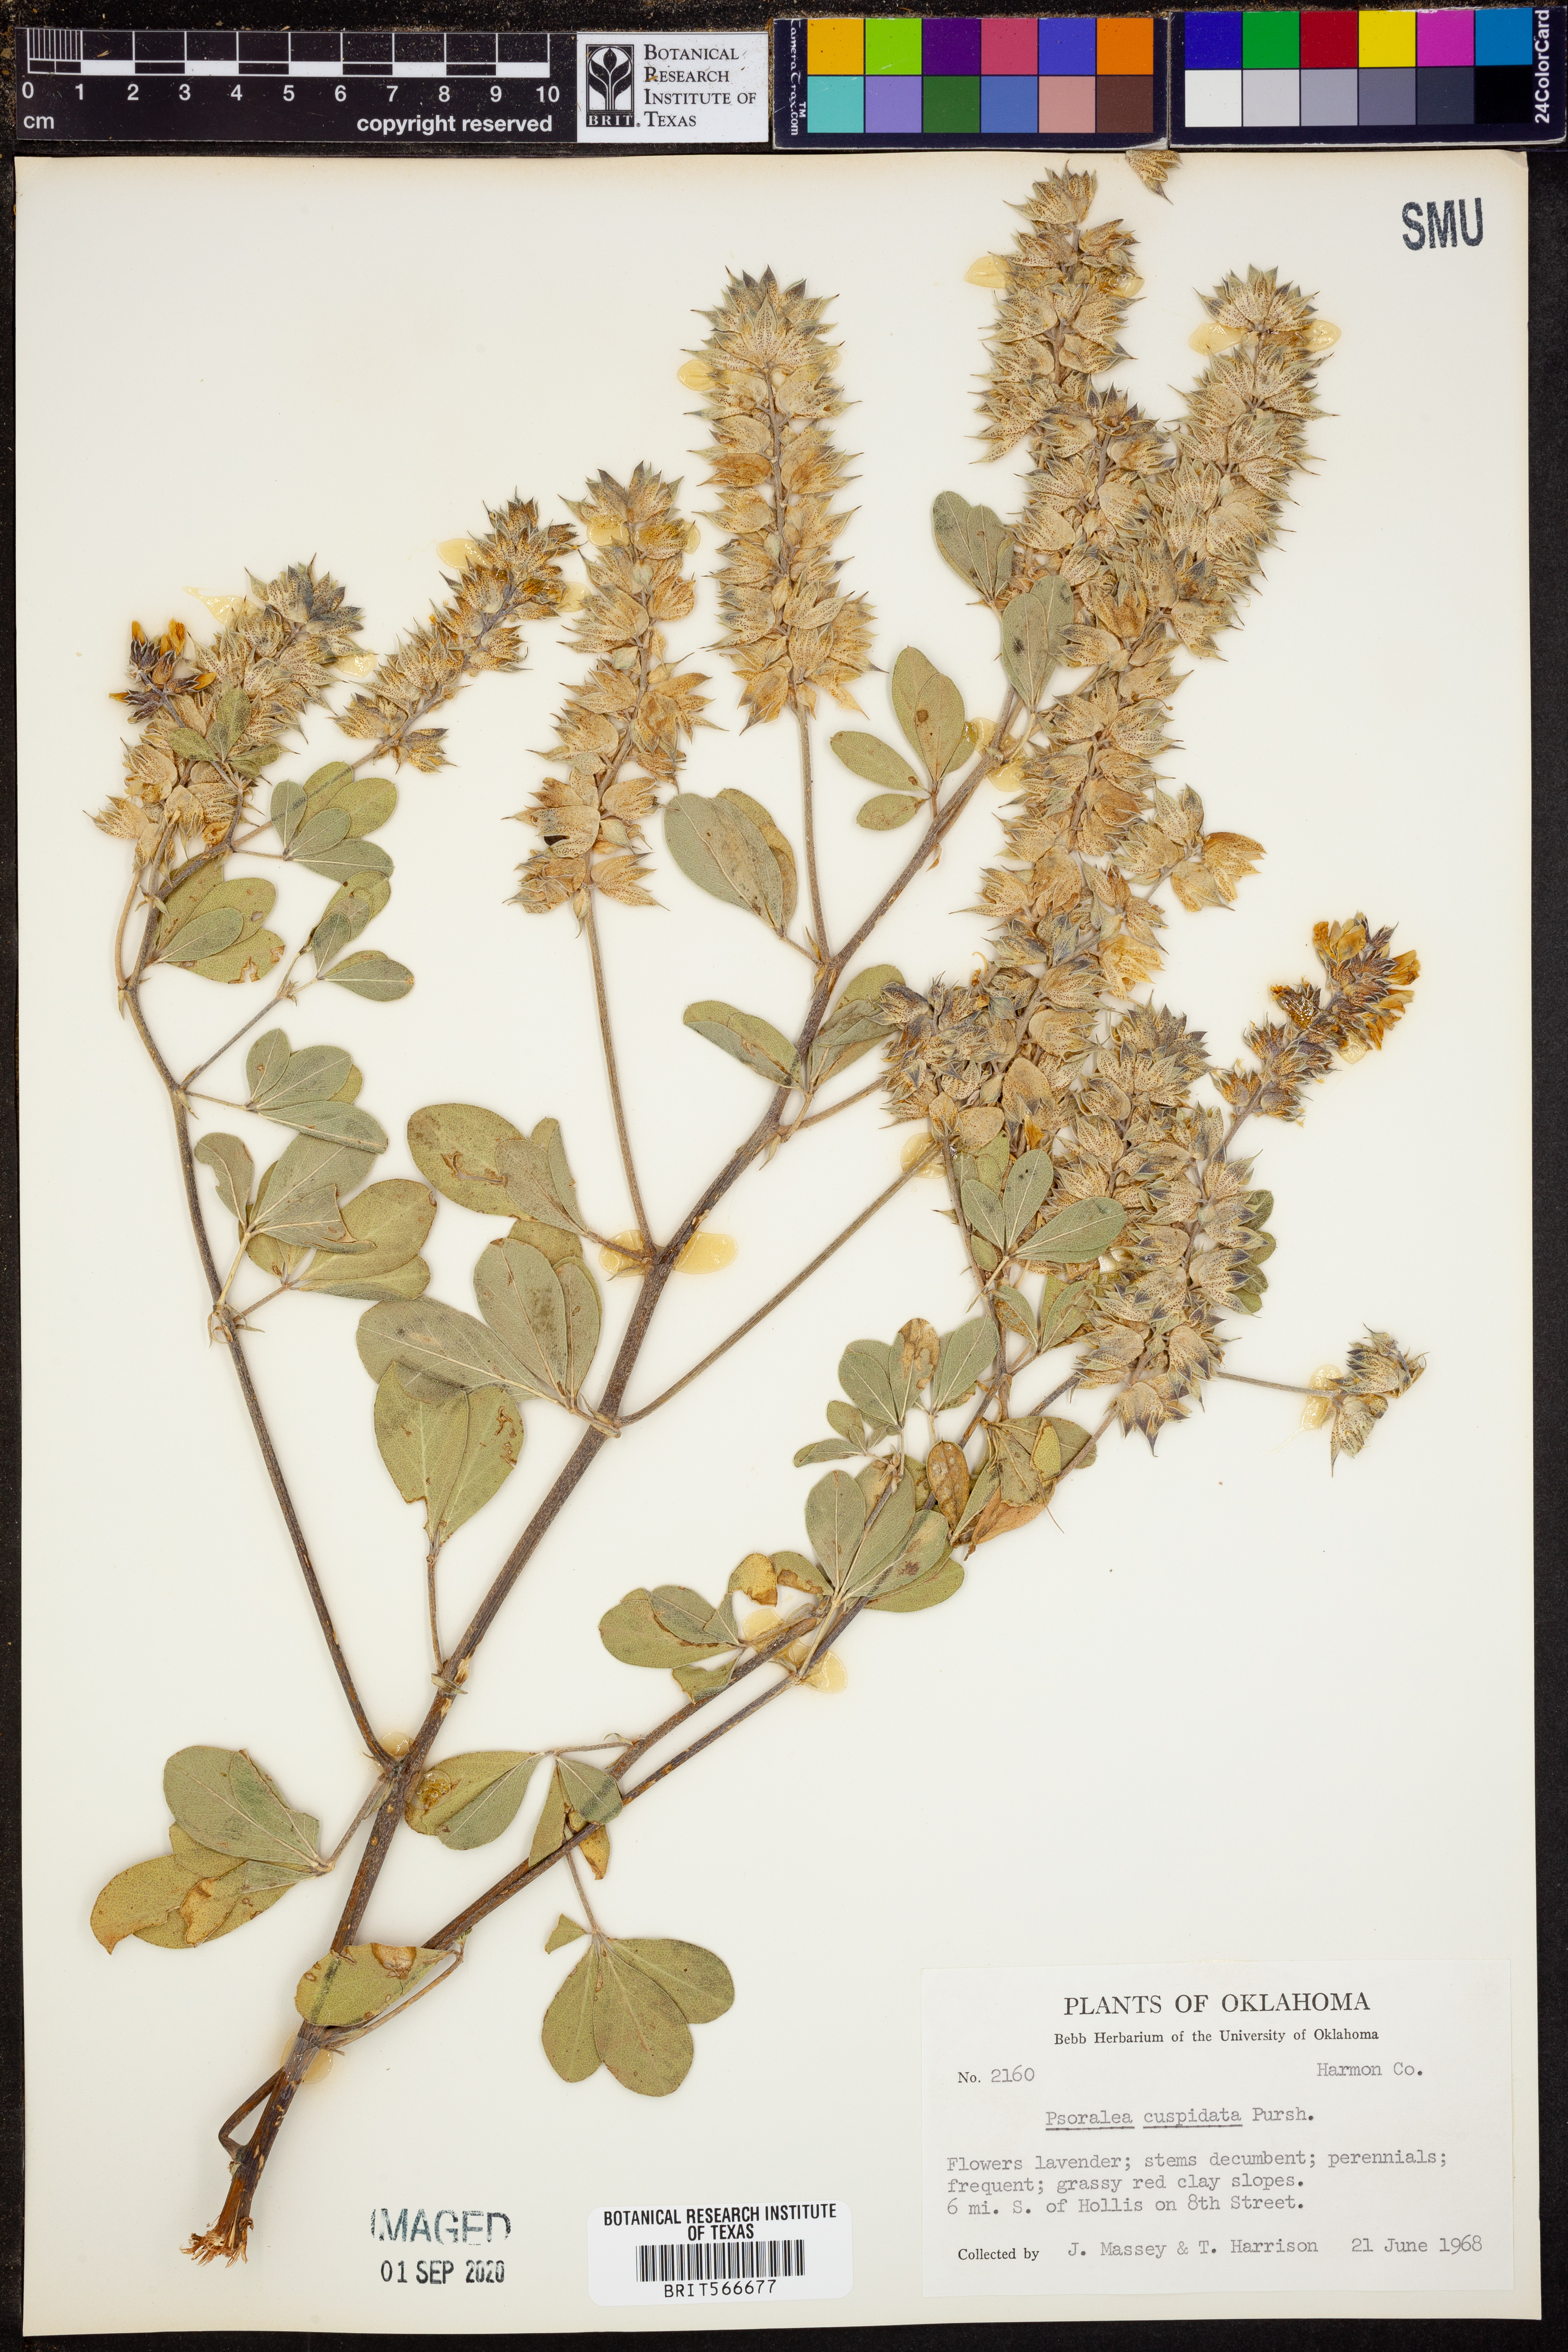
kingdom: Plantae
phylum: Tracheophyta
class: Magnoliopsida
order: Fabales
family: Fabaceae
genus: Pediomelum
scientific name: Pediomelum cuspidatum
